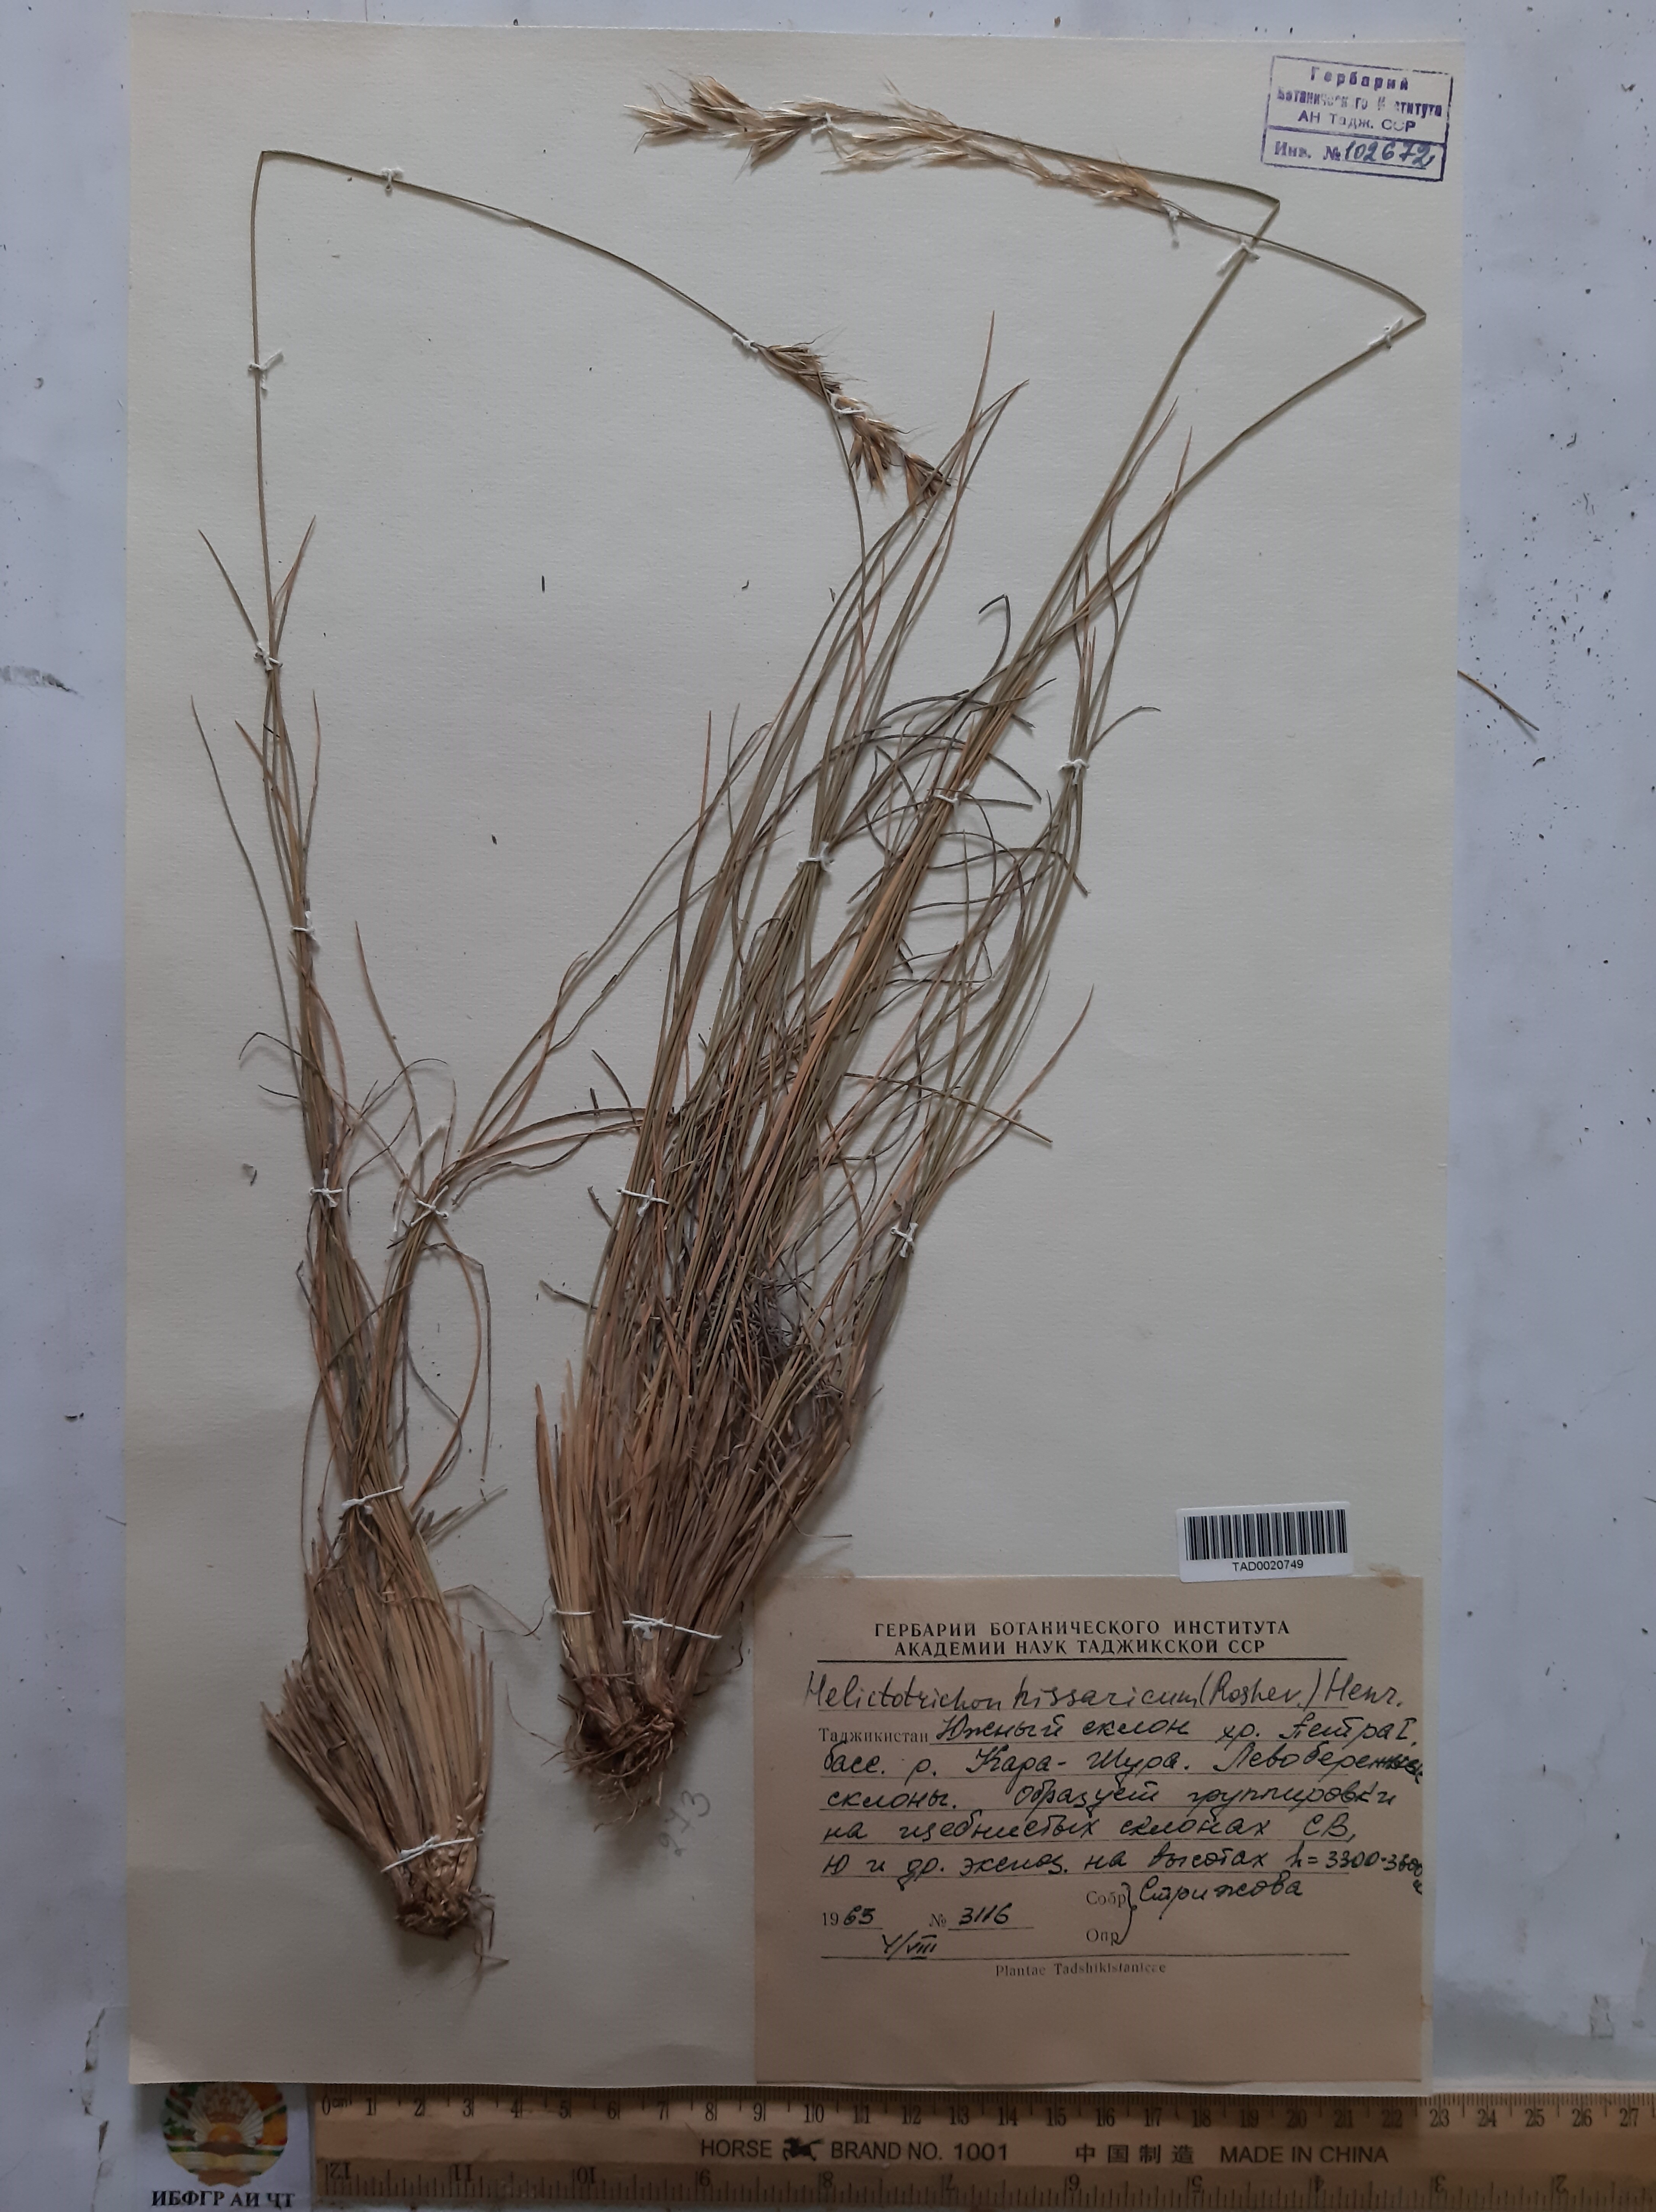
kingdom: Plantae
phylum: Tracheophyta
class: Liliopsida
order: Poales
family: Poaceae
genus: Helictotrichon
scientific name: Helictotrichon hissaricum
